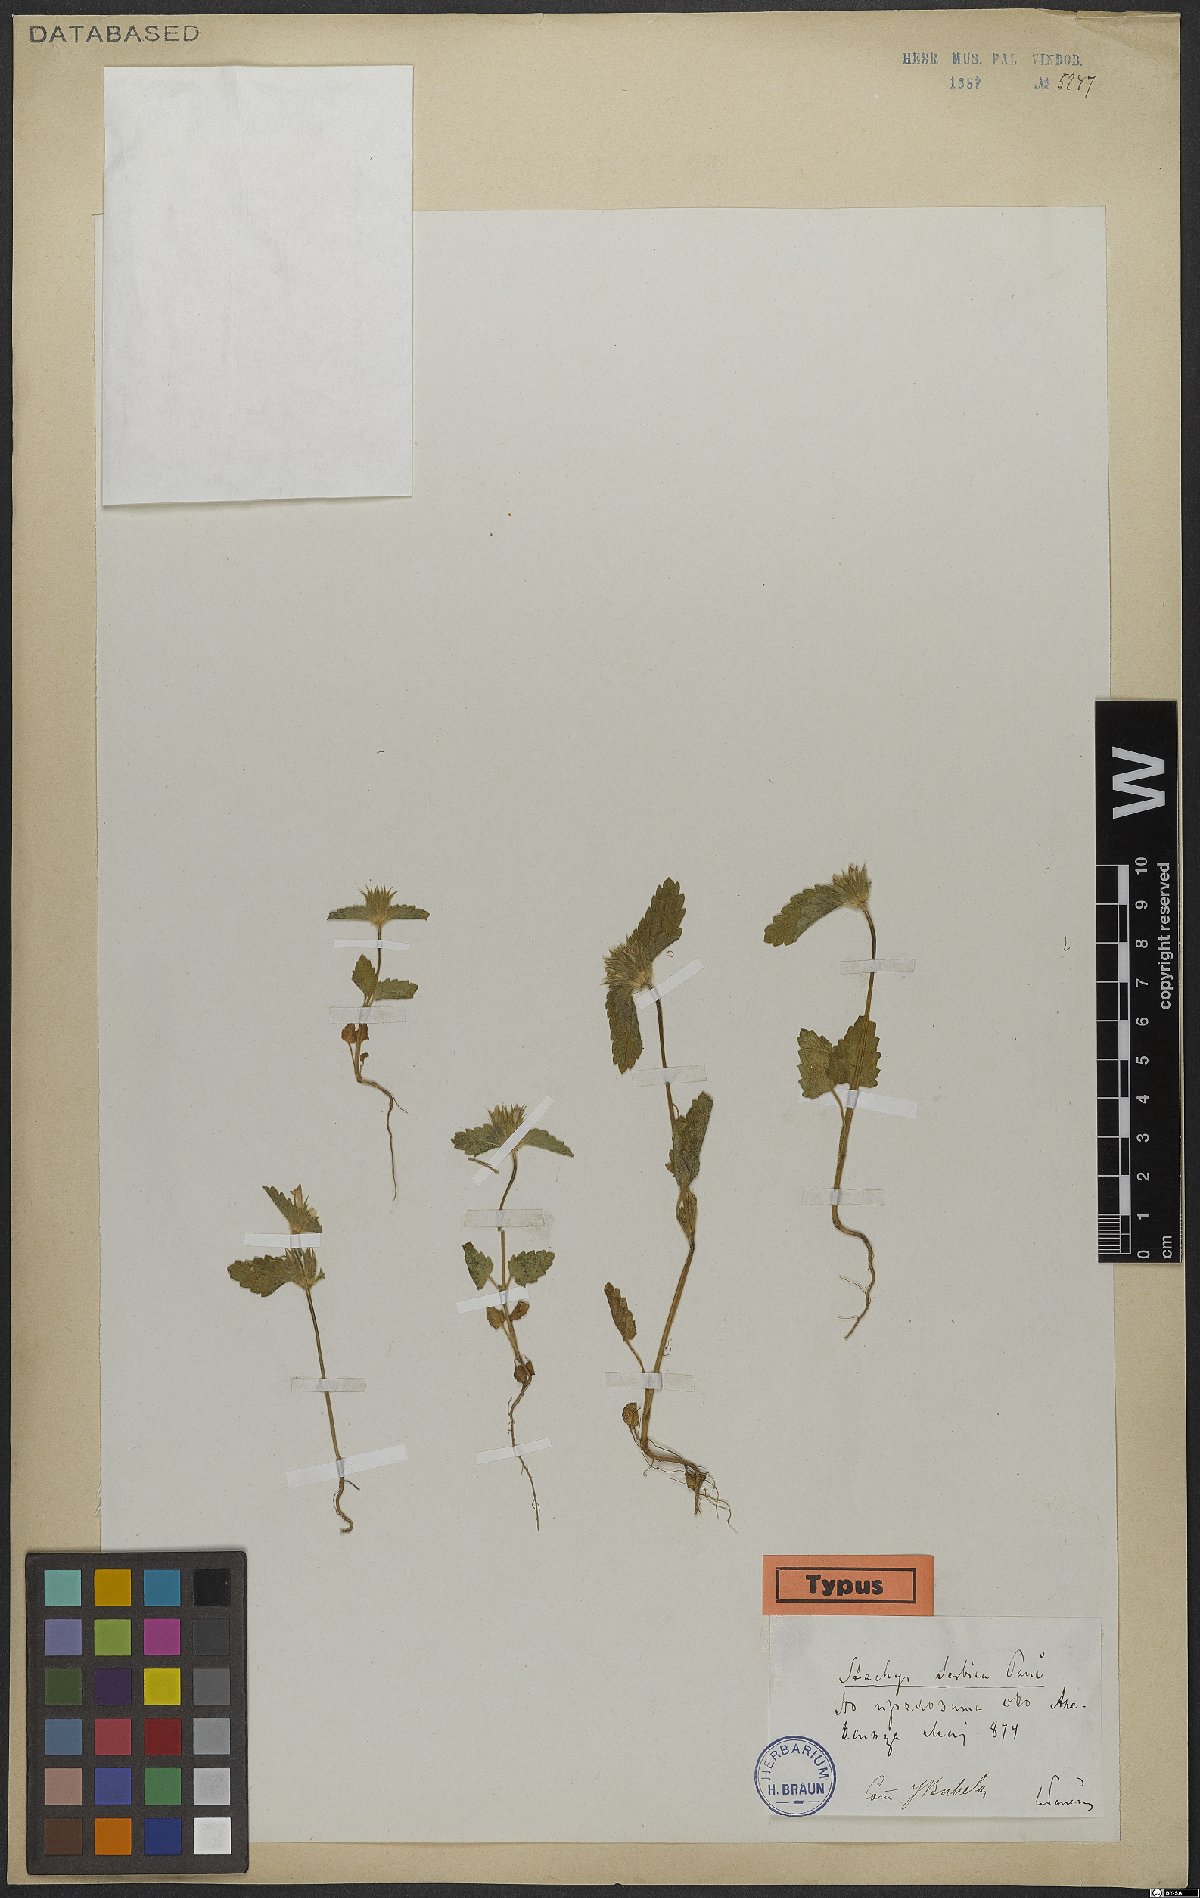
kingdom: Plantae
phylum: Tracheophyta
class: Magnoliopsida
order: Lamiales
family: Lamiaceae
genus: Stachys
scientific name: Stachys serbica
